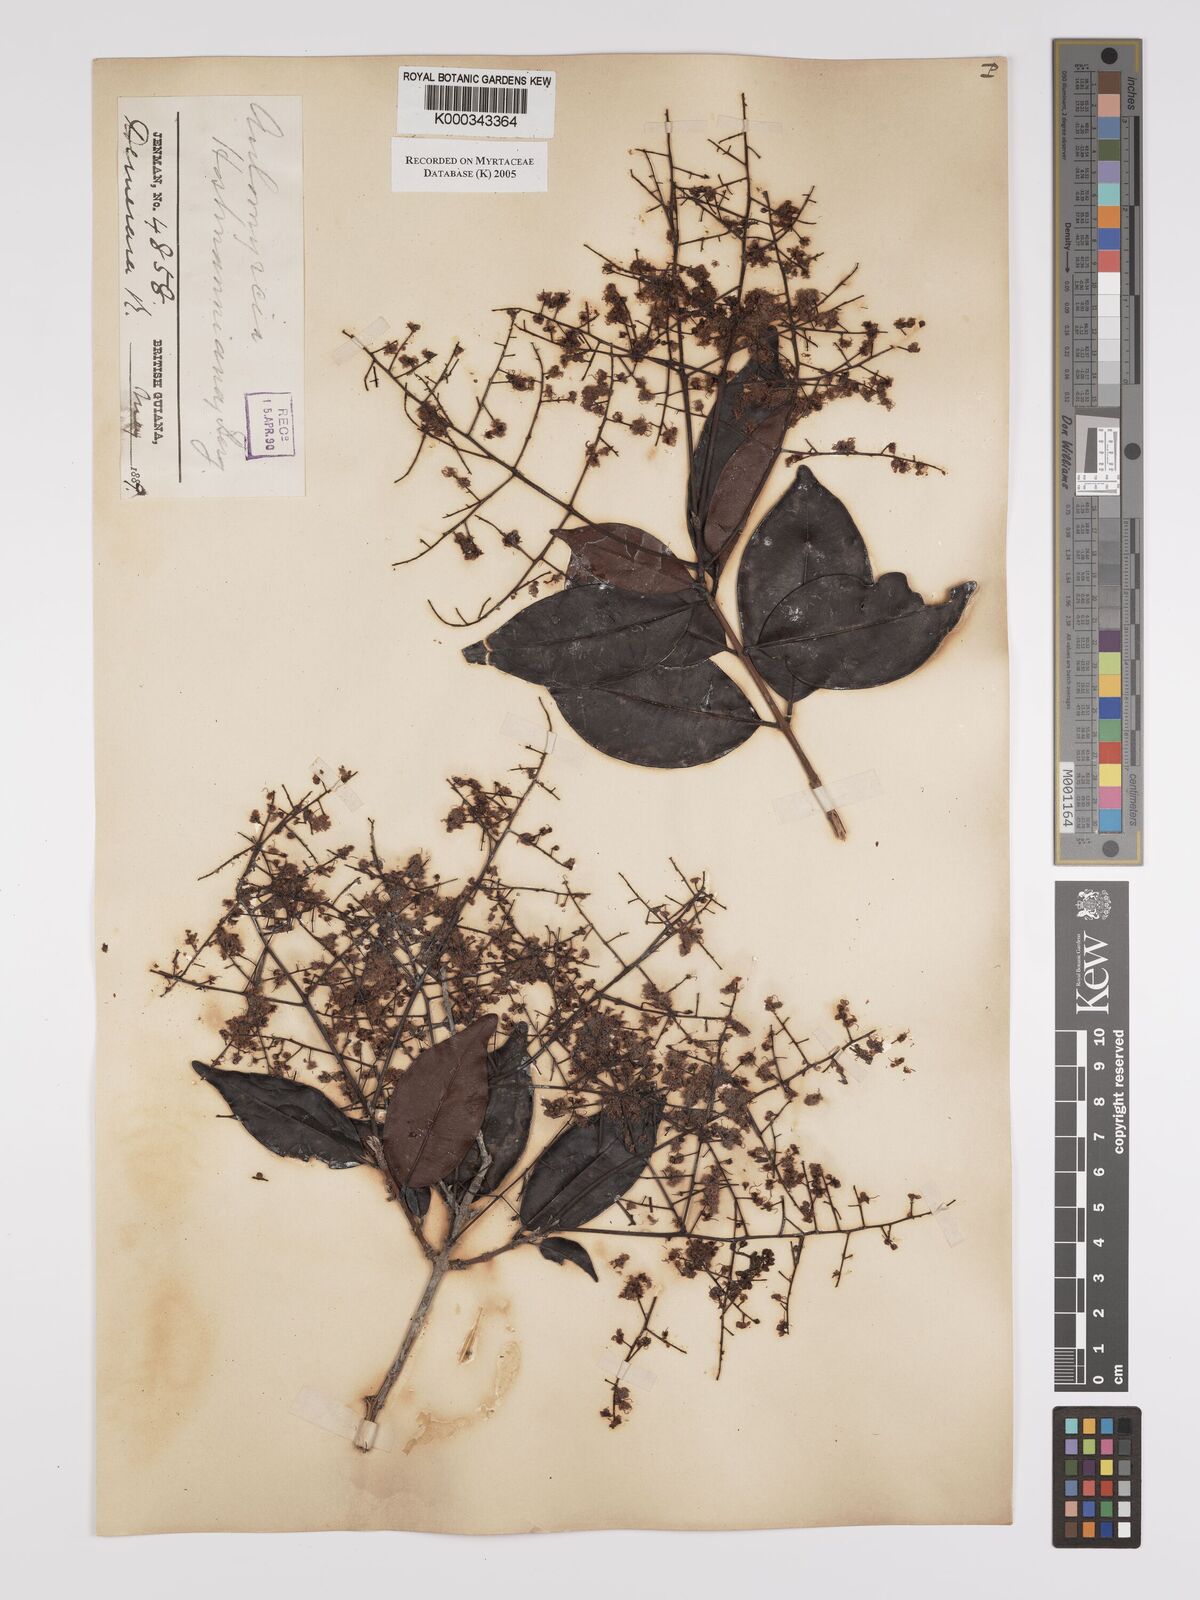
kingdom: Plantae
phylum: Tracheophyta
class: Magnoliopsida
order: Myrtales
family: Myrtaceae
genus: Myrcia
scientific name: Myrcia amazonica
